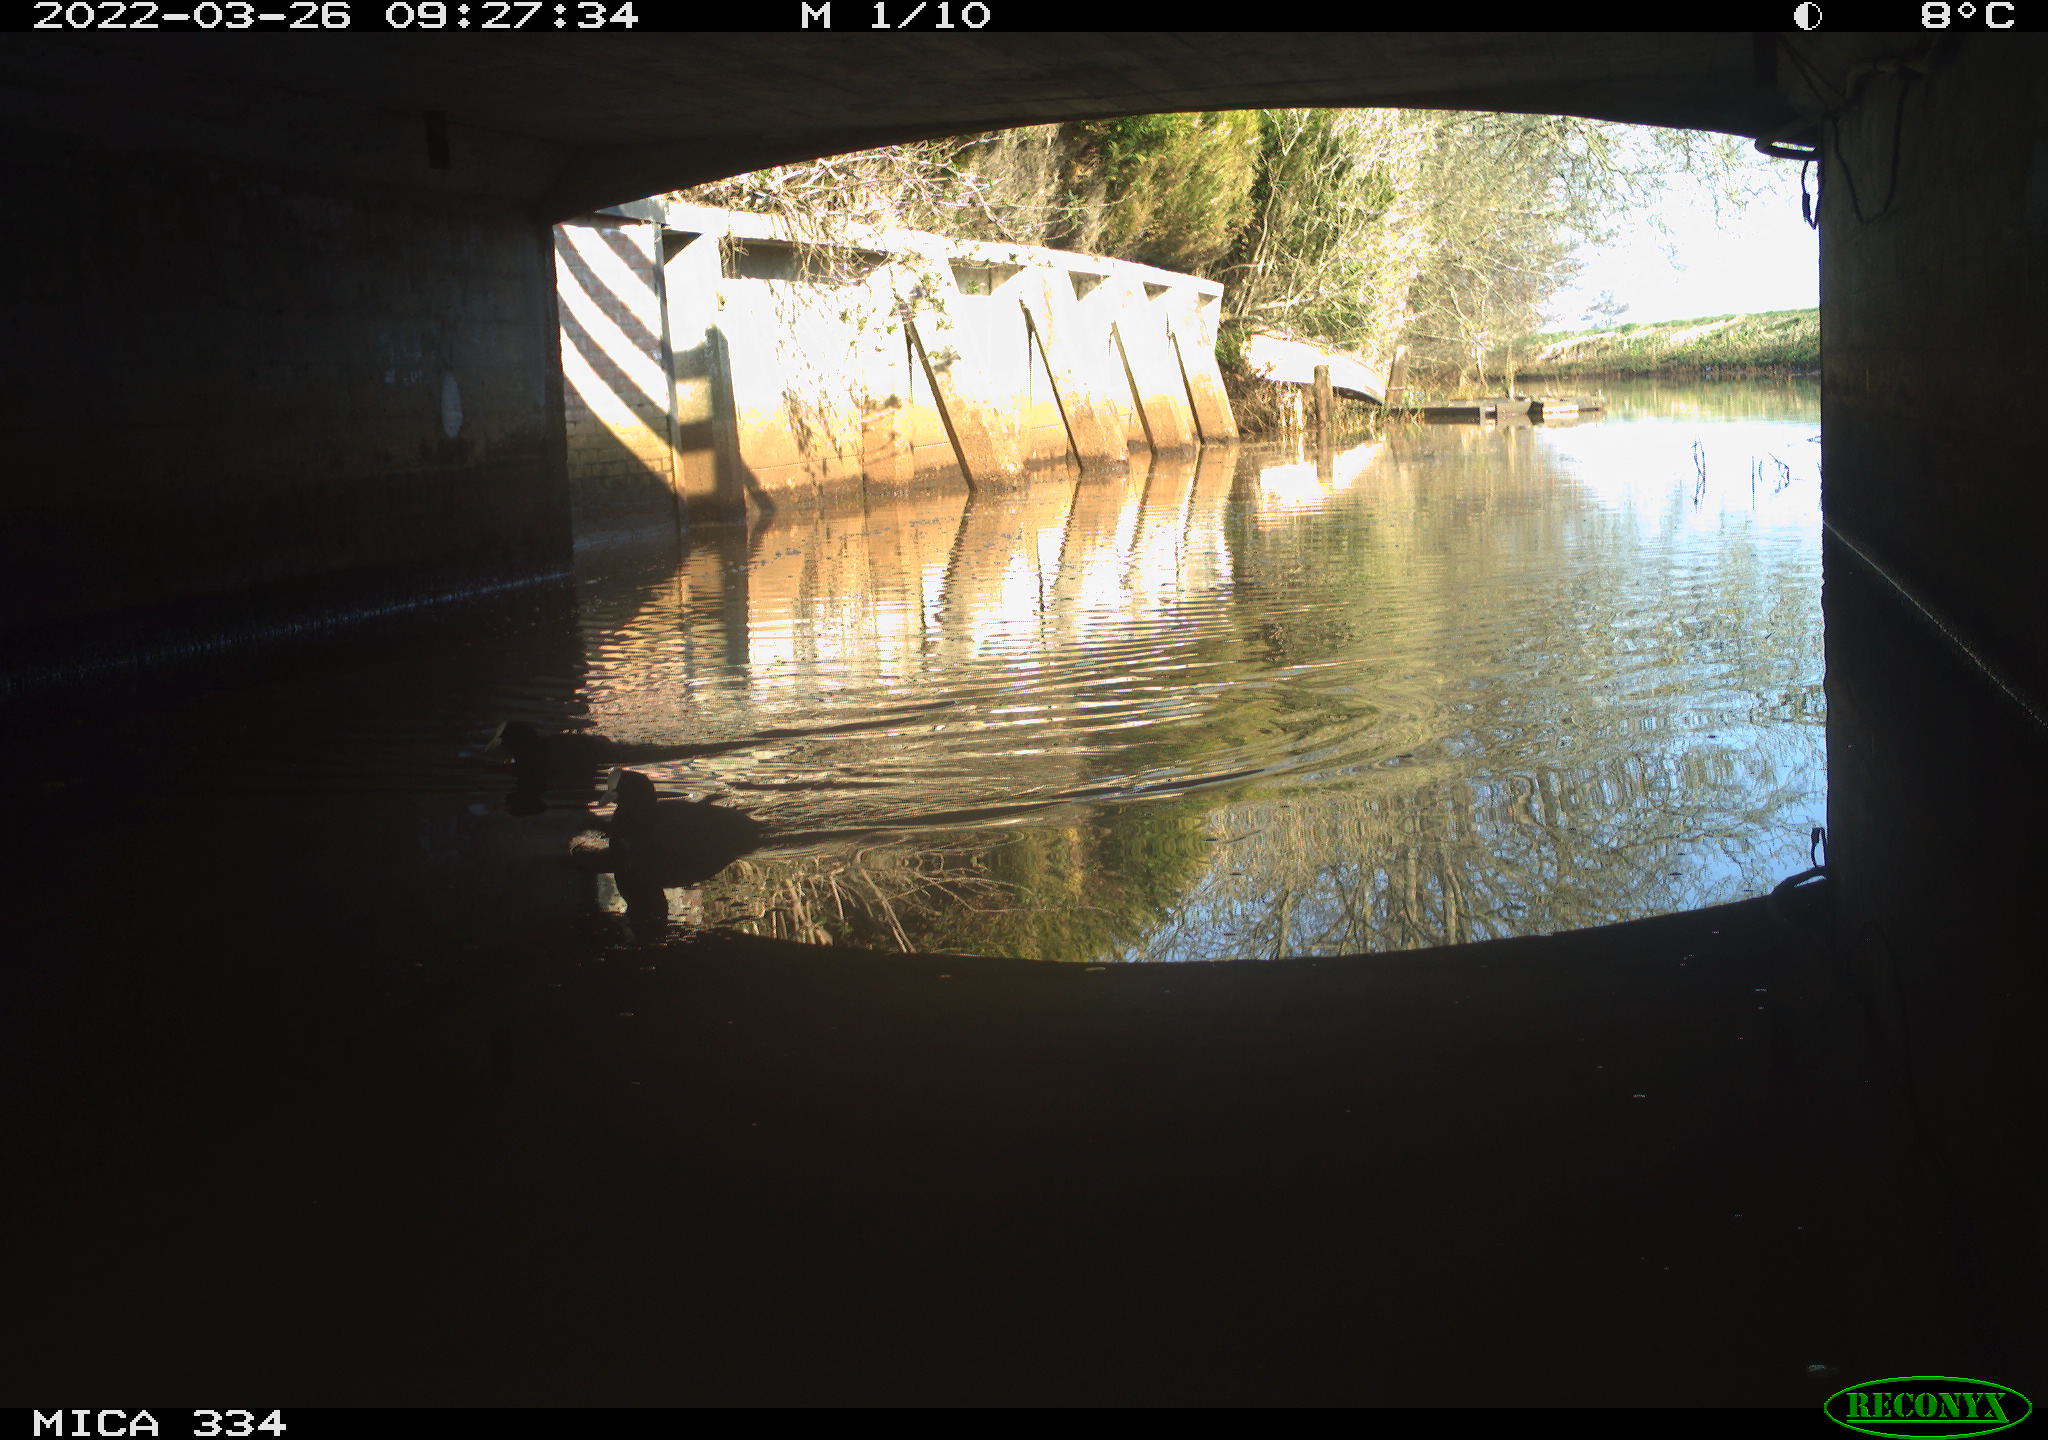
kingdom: Animalia
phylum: Chordata
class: Aves
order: Gruiformes
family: Rallidae
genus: Fulica
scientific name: Fulica atra
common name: Eurasian coot
